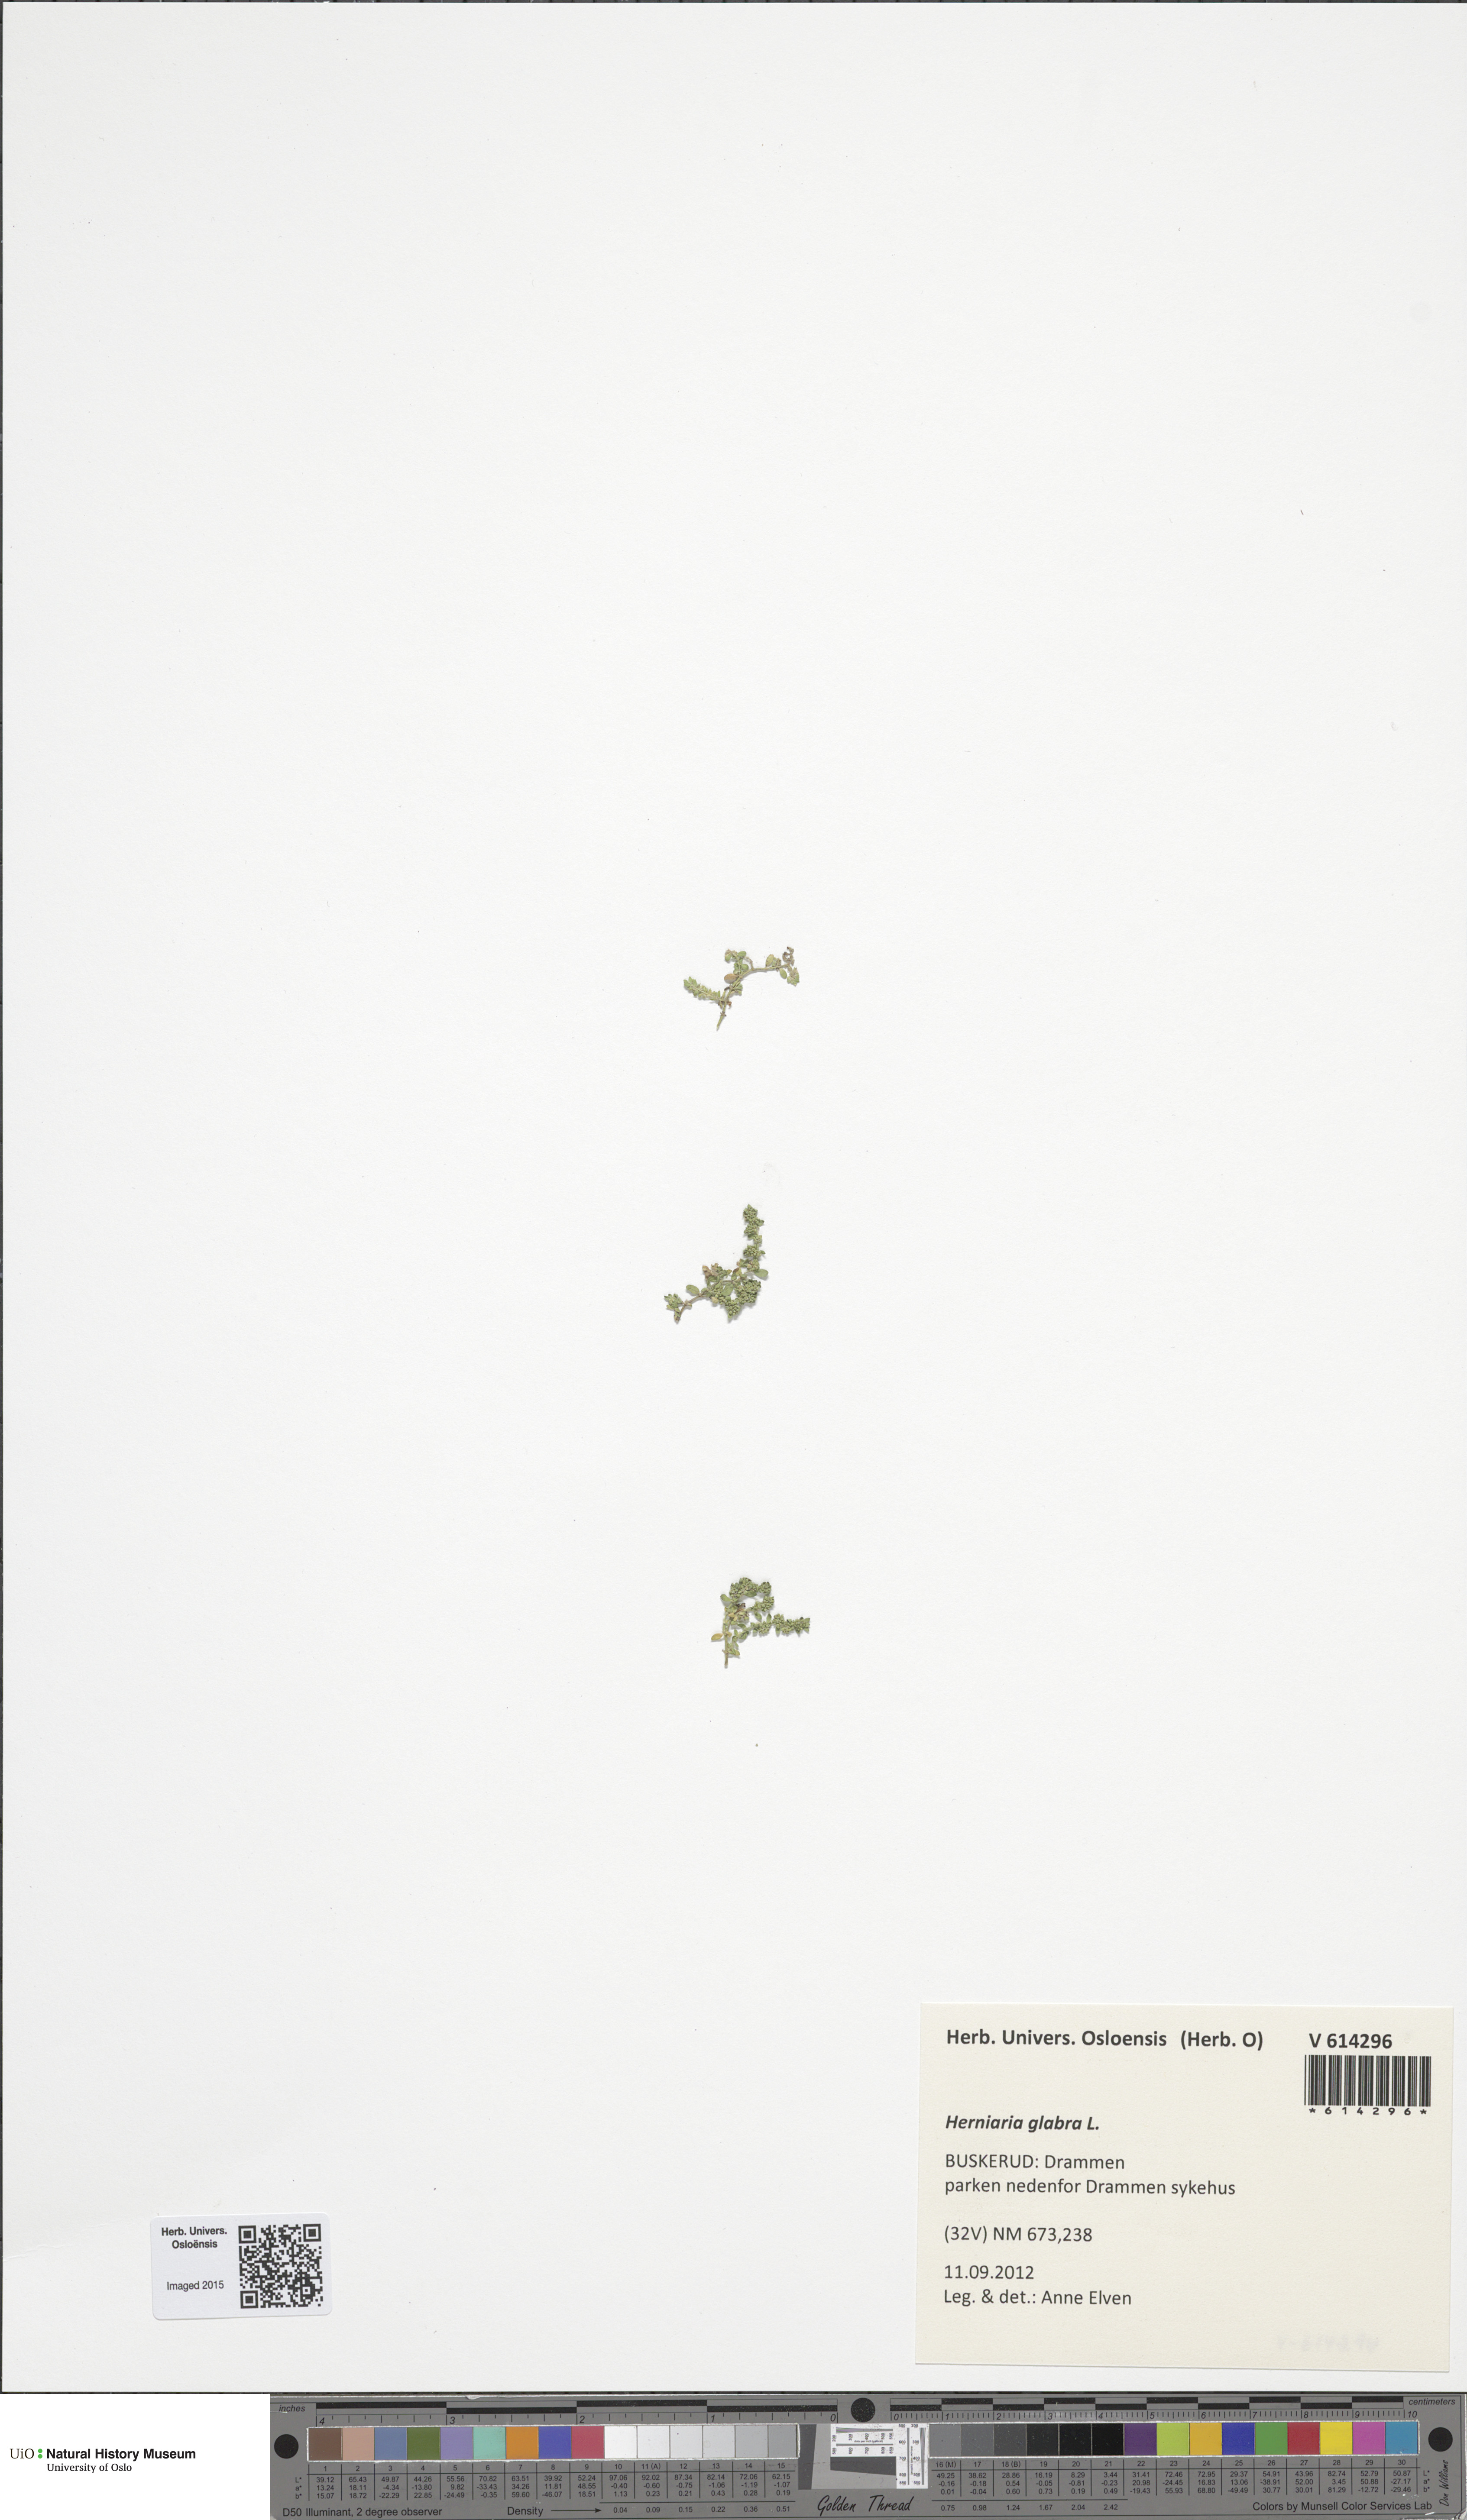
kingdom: Plantae
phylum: Tracheophyta
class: Magnoliopsida
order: Caryophyllales
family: Caryophyllaceae
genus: Herniaria
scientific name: Herniaria glabra
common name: Smooth rupturewort
